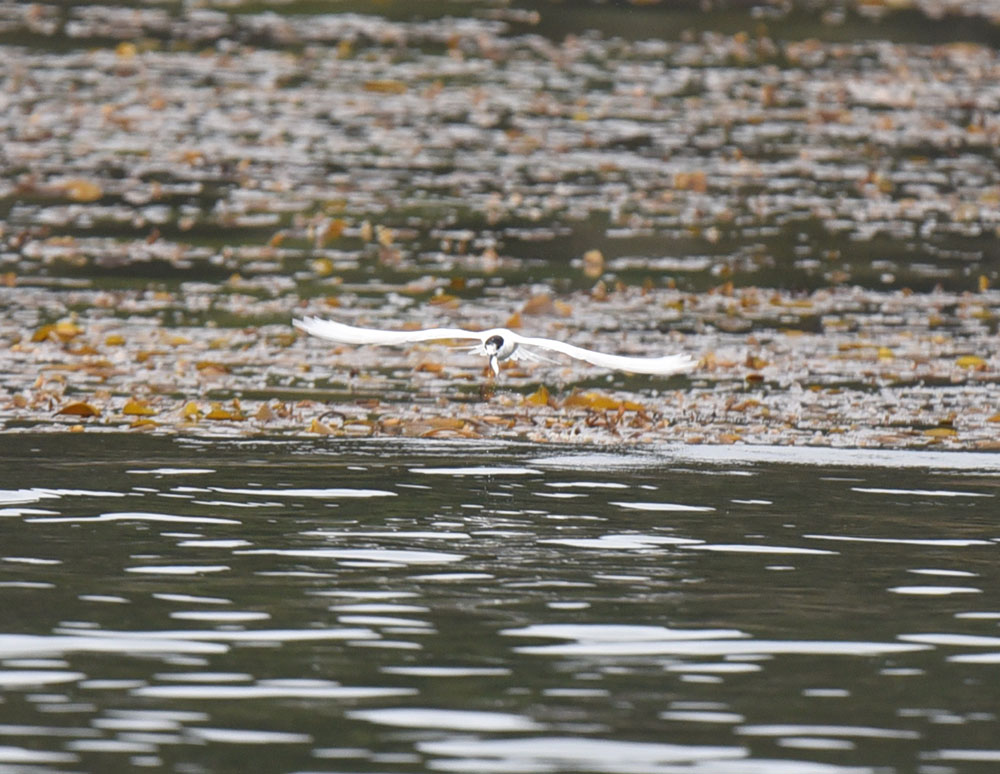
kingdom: Animalia
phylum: Chordata
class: Aves
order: Charadriiformes
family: Laridae
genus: Sterna
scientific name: Sterna striata
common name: White-fronted tern
